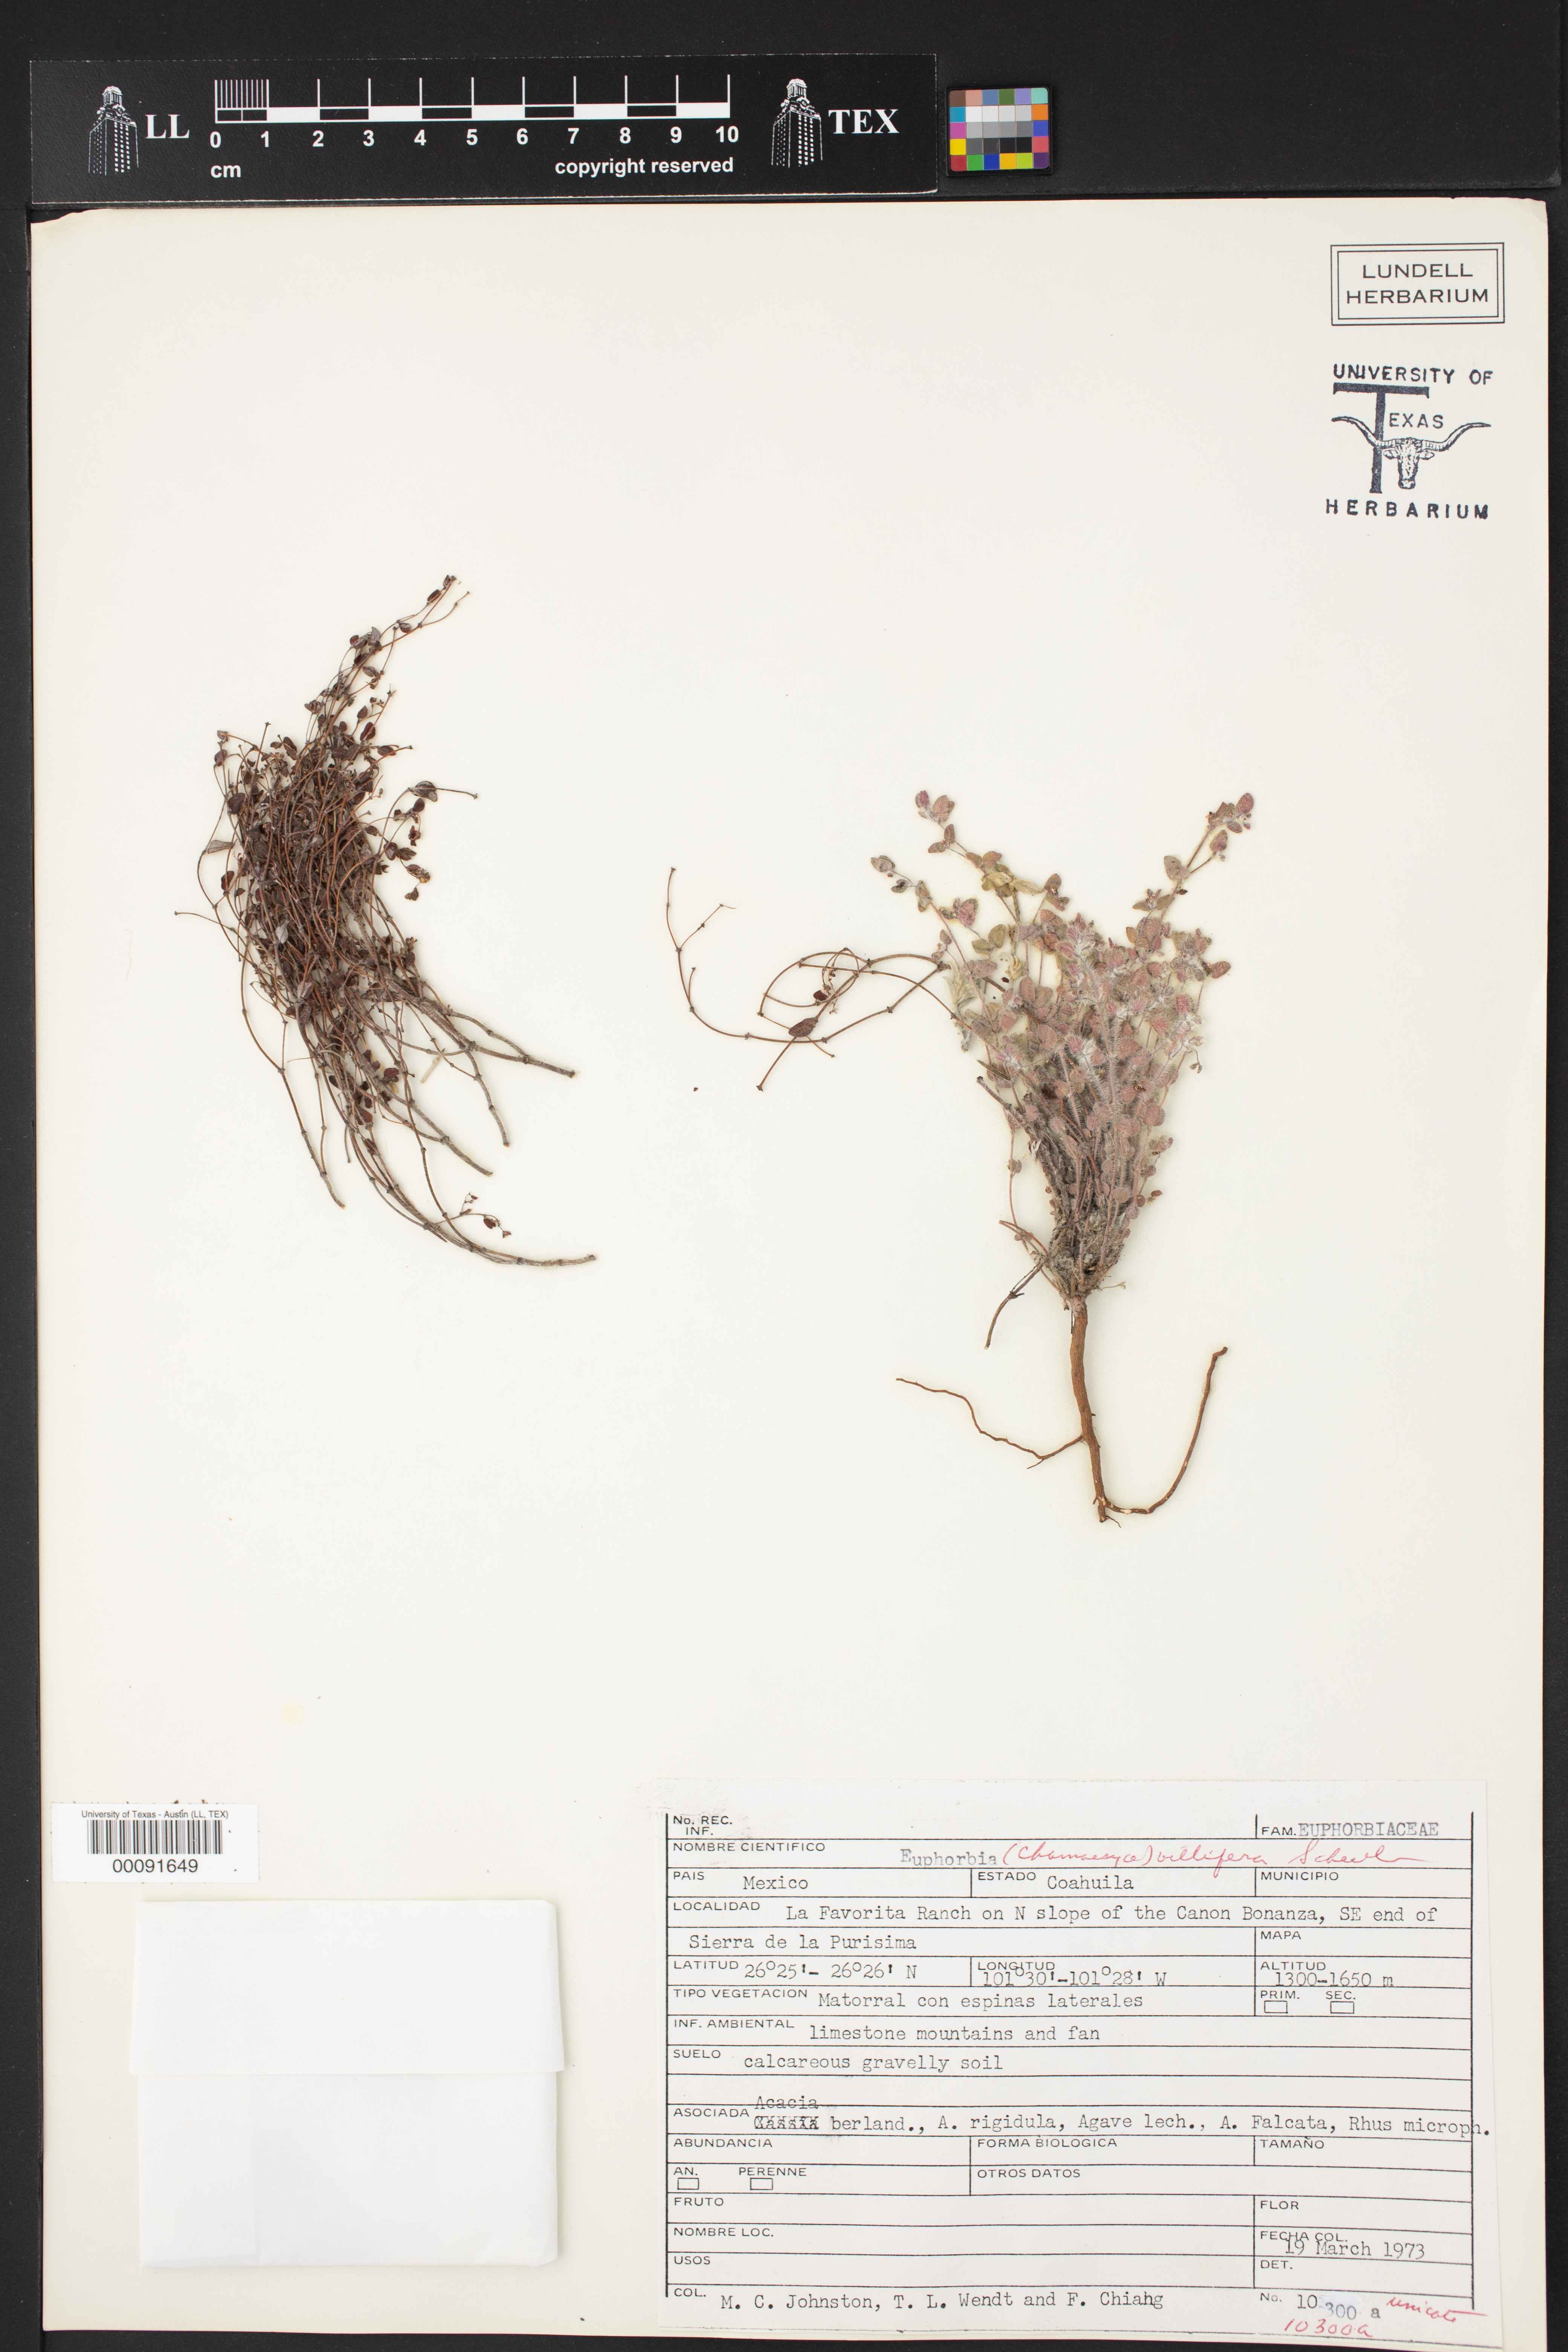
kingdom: Plantae
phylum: Tracheophyta
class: Magnoliopsida
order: Malpighiales
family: Euphorbiaceae
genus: Euphorbia
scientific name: Euphorbia villifera
